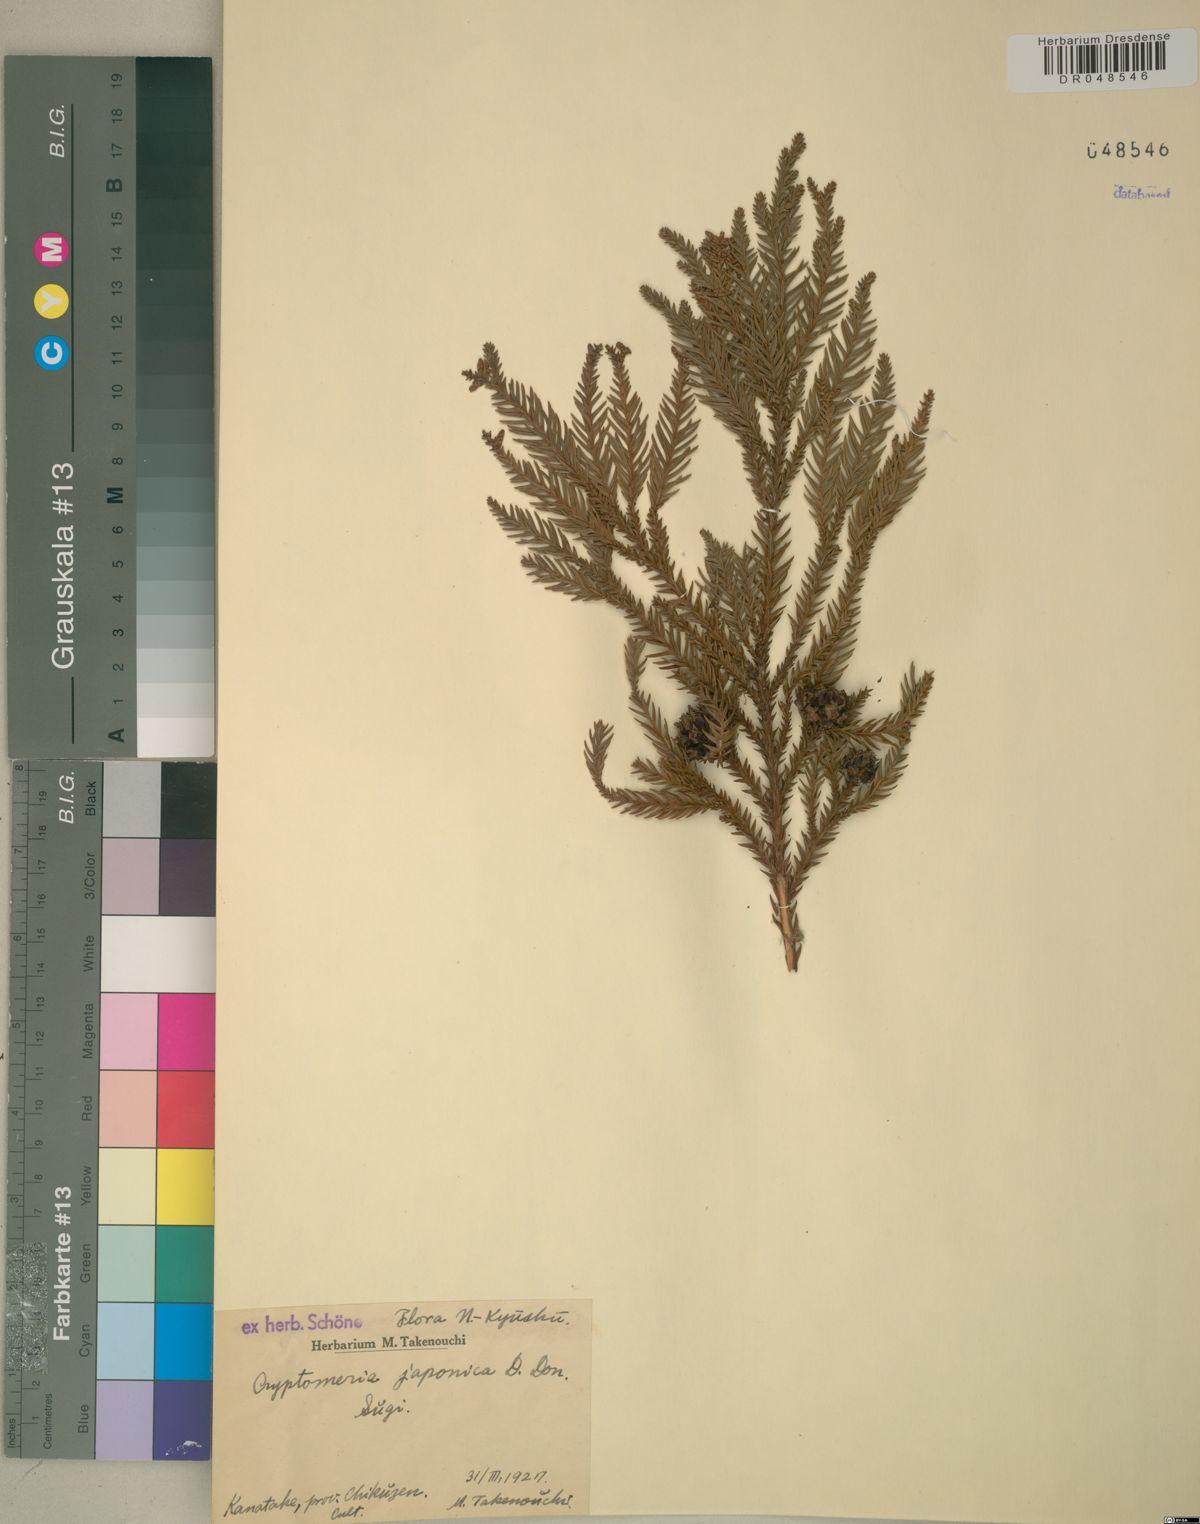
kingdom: Plantae
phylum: Tracheophyta
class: Pinopsida
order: Pinales
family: Cupressaceae
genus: Cryptomeria
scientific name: Cryptomeria japonica
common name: Japanese cedar
